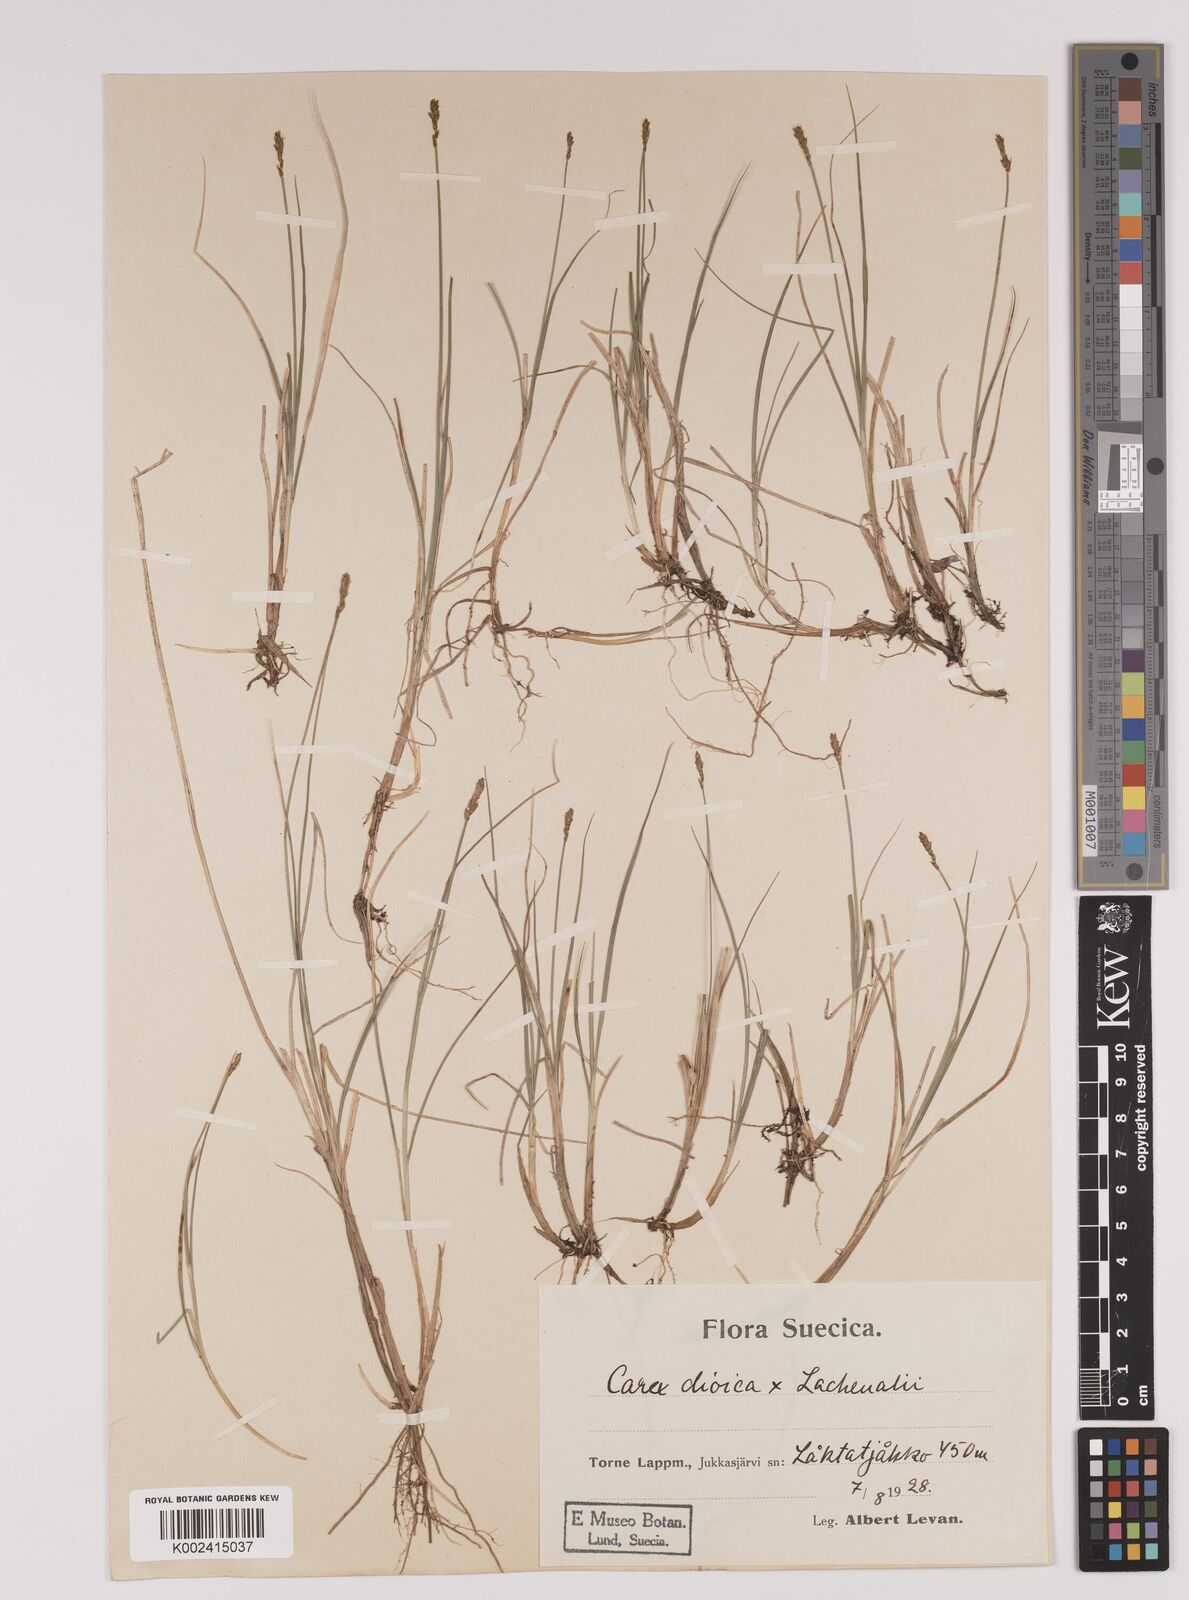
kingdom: Plantae
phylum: Tracheophyta
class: Liliopsida
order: Poales
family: Cyperaceae
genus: Carex
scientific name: Carex dioica
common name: Dioecious sedge
